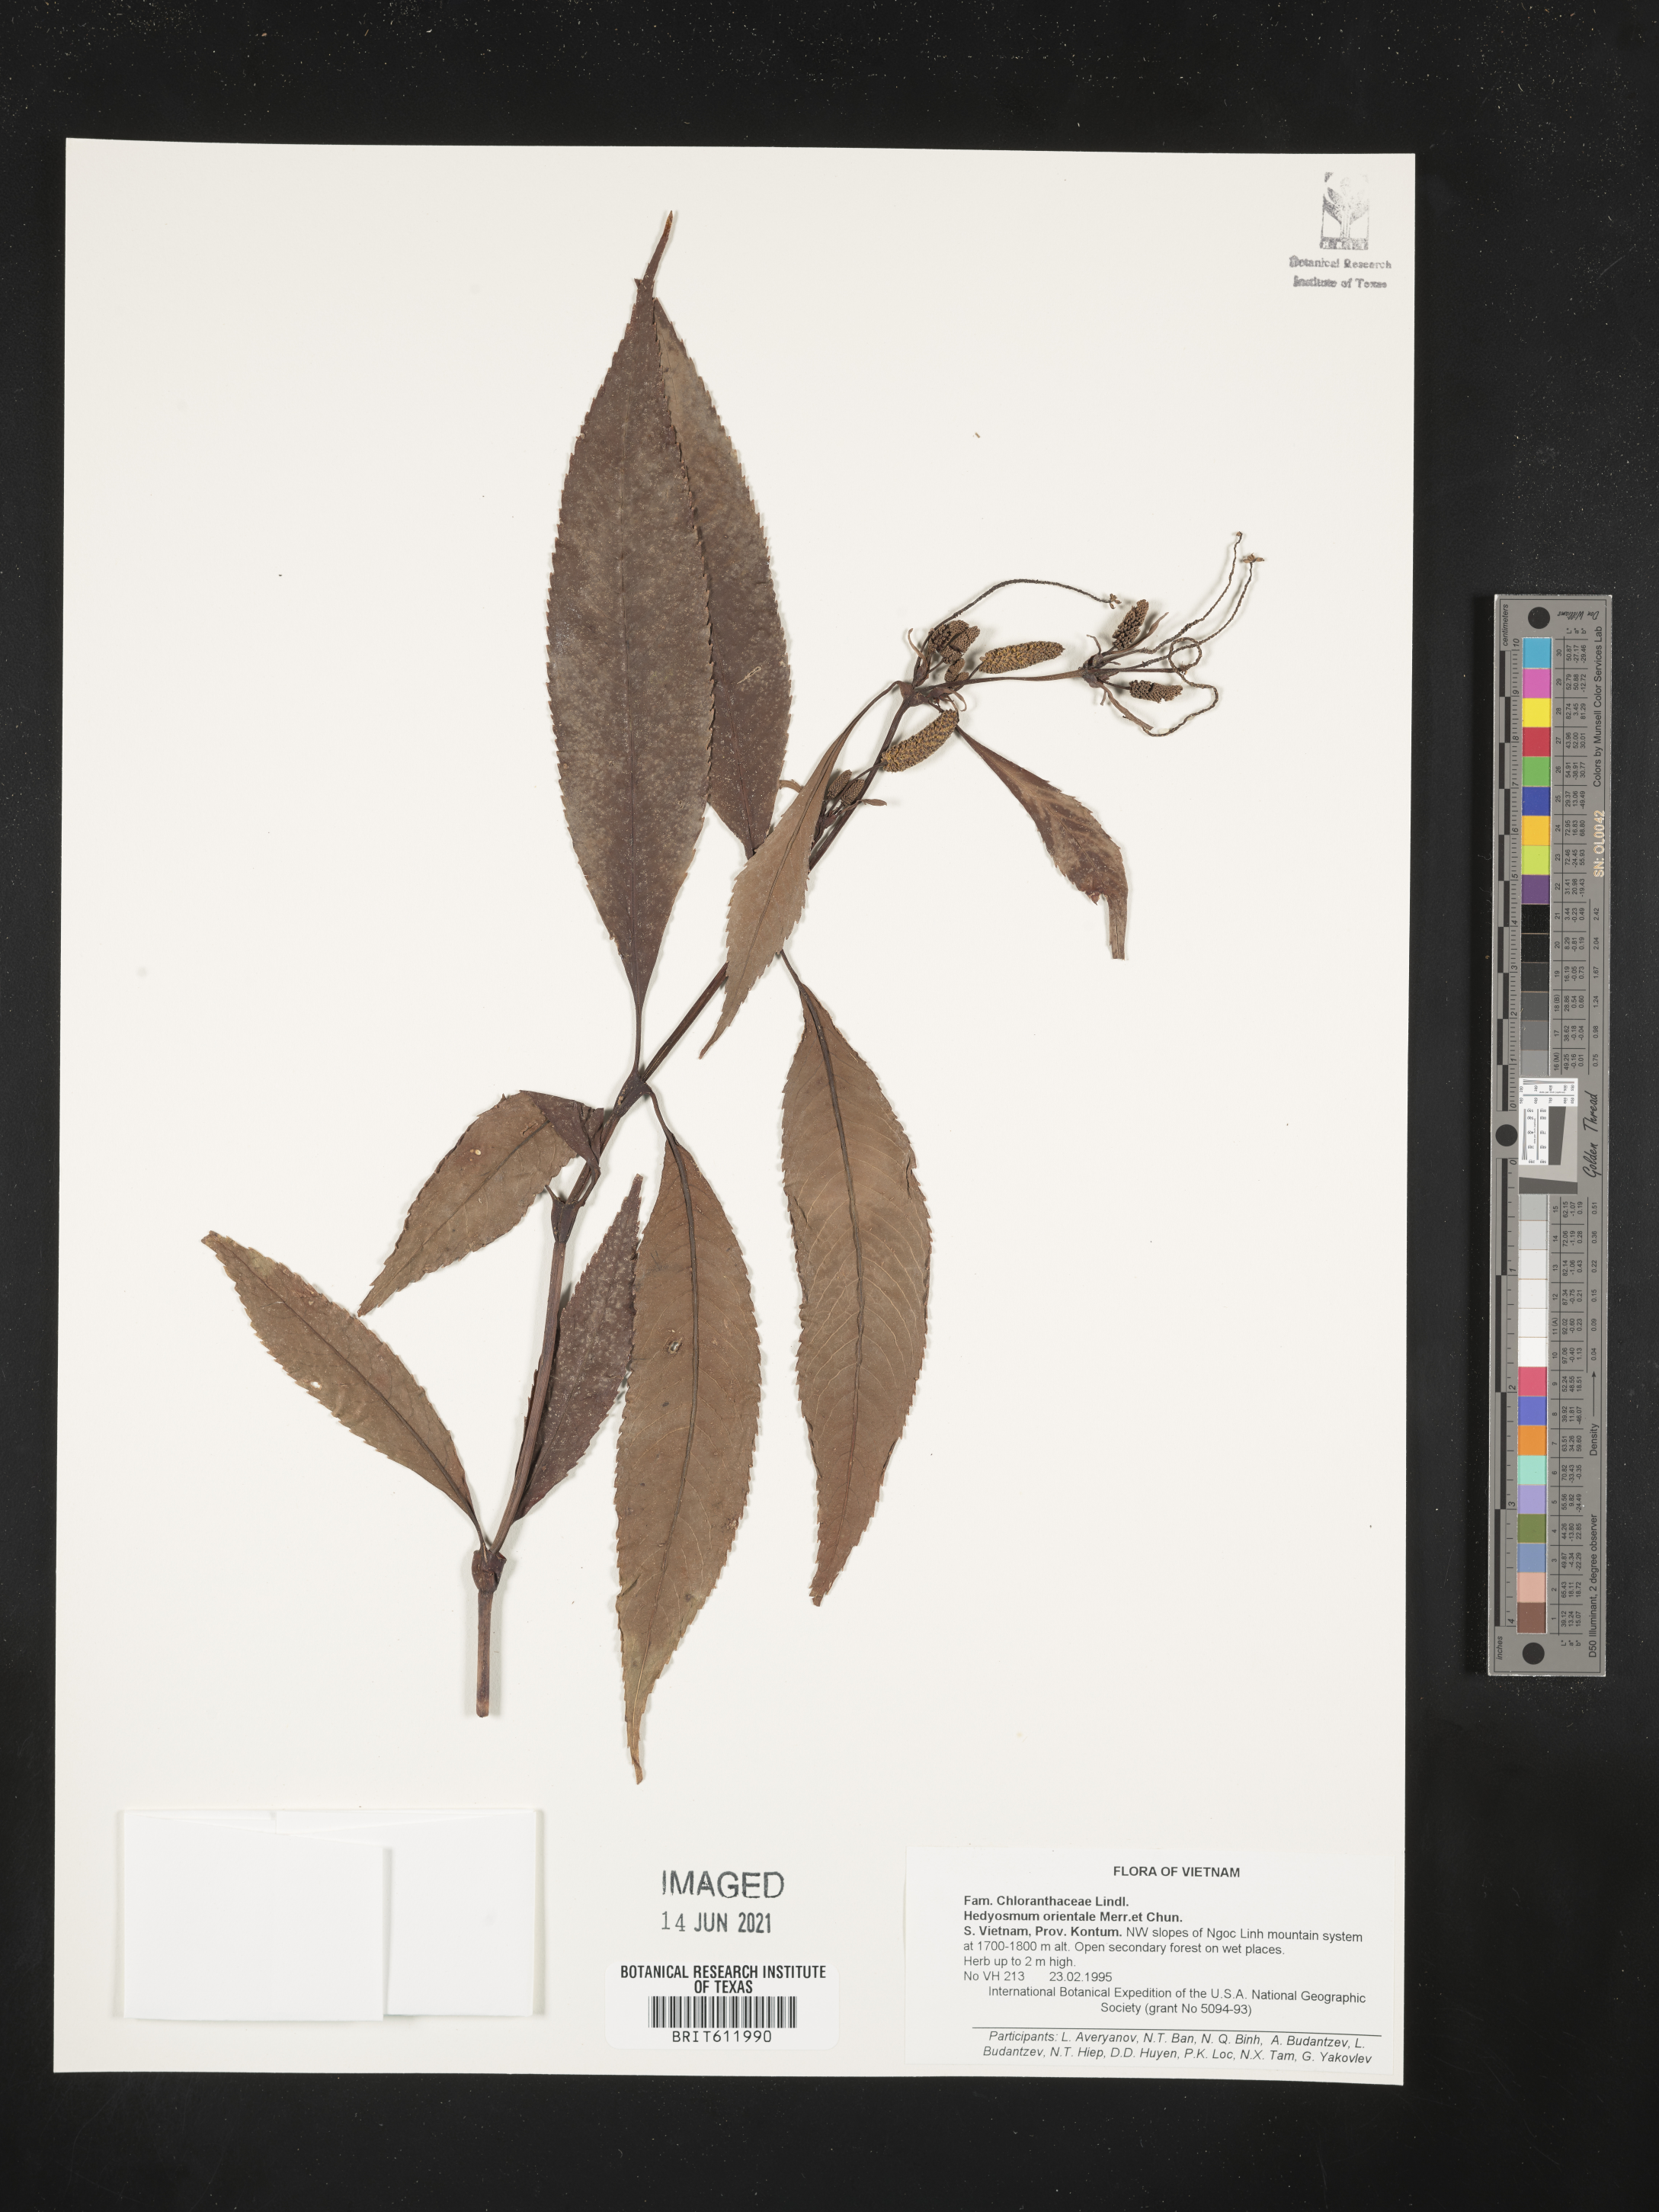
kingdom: Plantae
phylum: Tracheophyta
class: Magnoliopsida
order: Chloranthales
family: Chloranthaceae
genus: Hedyosmum
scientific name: Hedyosmum orientale
